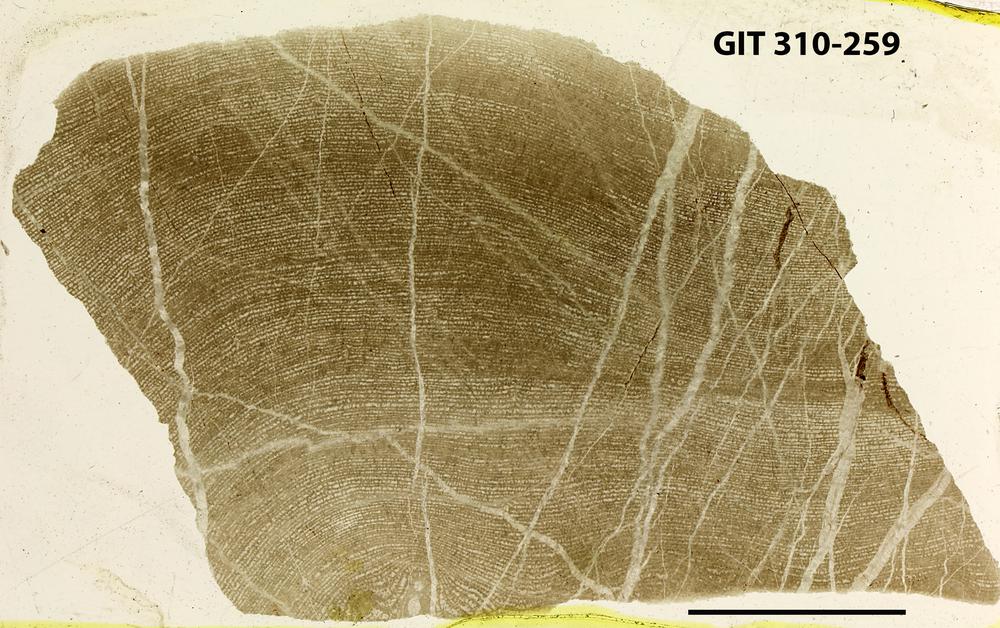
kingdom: Animalia
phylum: Porifera
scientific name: Porifera
